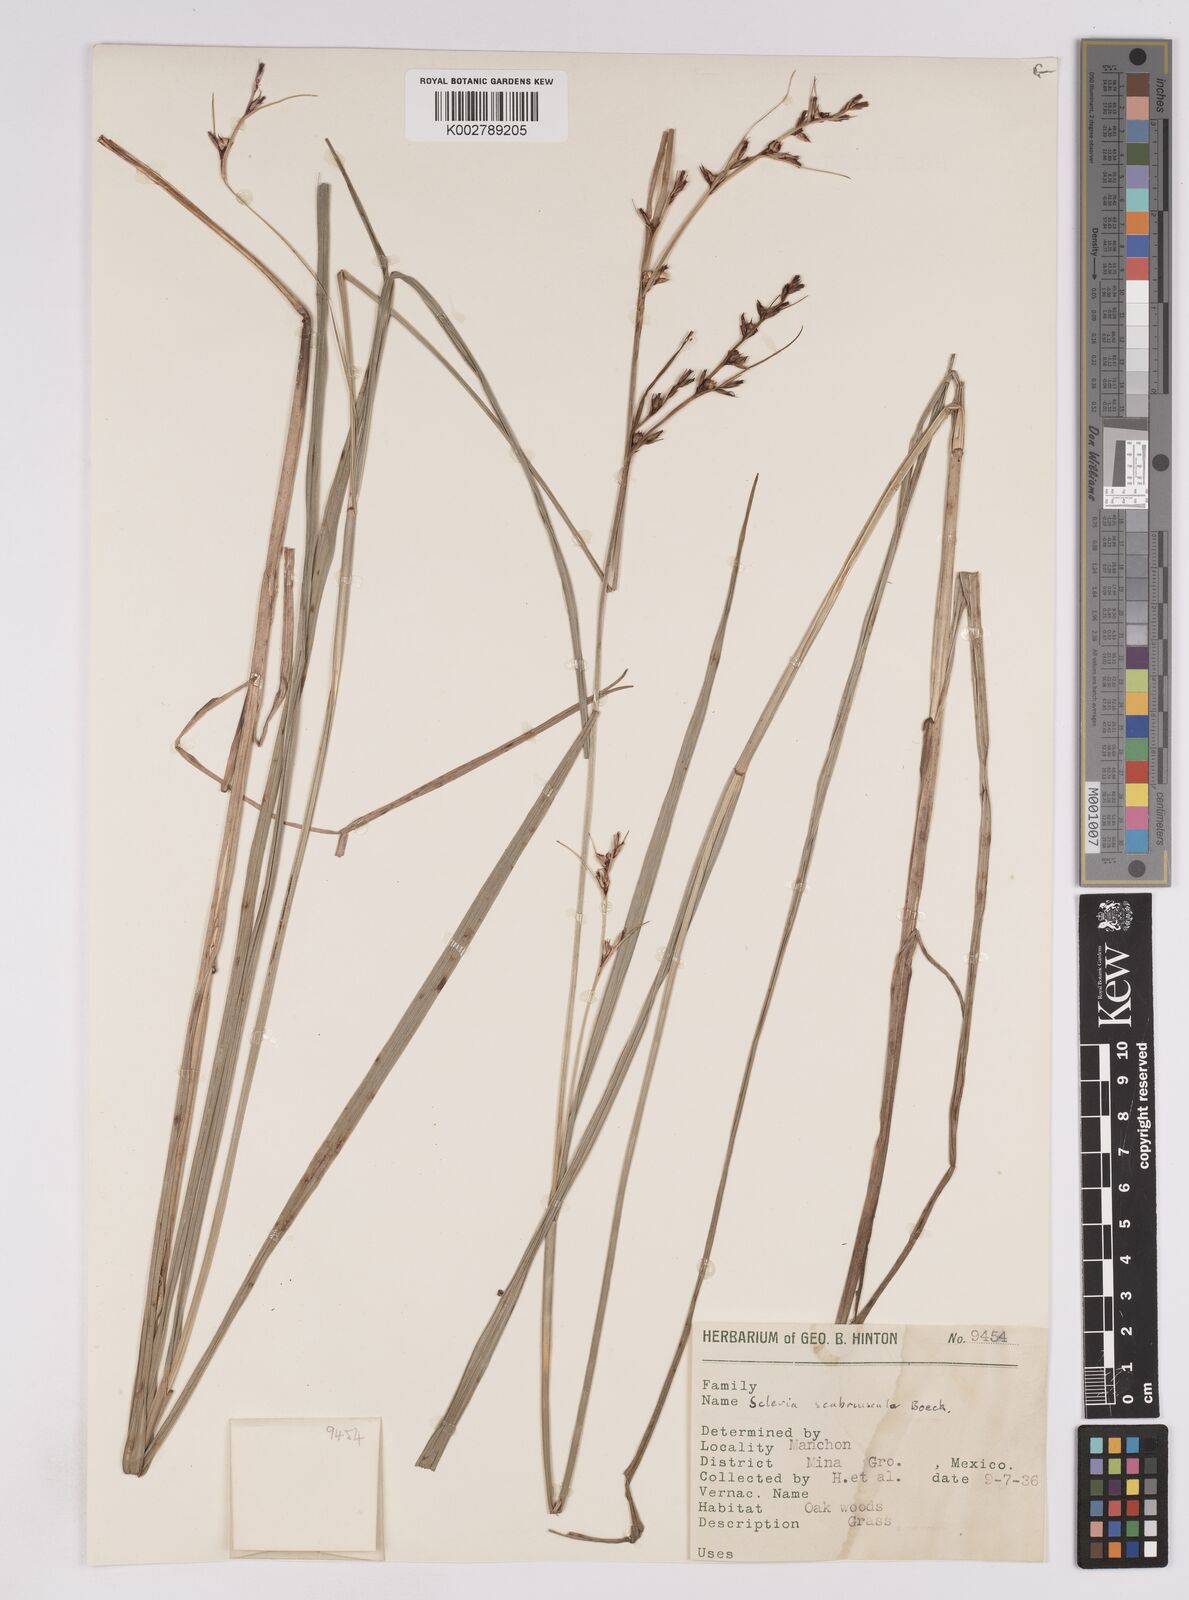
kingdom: Plantae
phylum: Tracheophyta
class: Liliopsida
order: Poales
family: Cyperaceae
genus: Scleria
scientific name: Scleria scabriuscula
